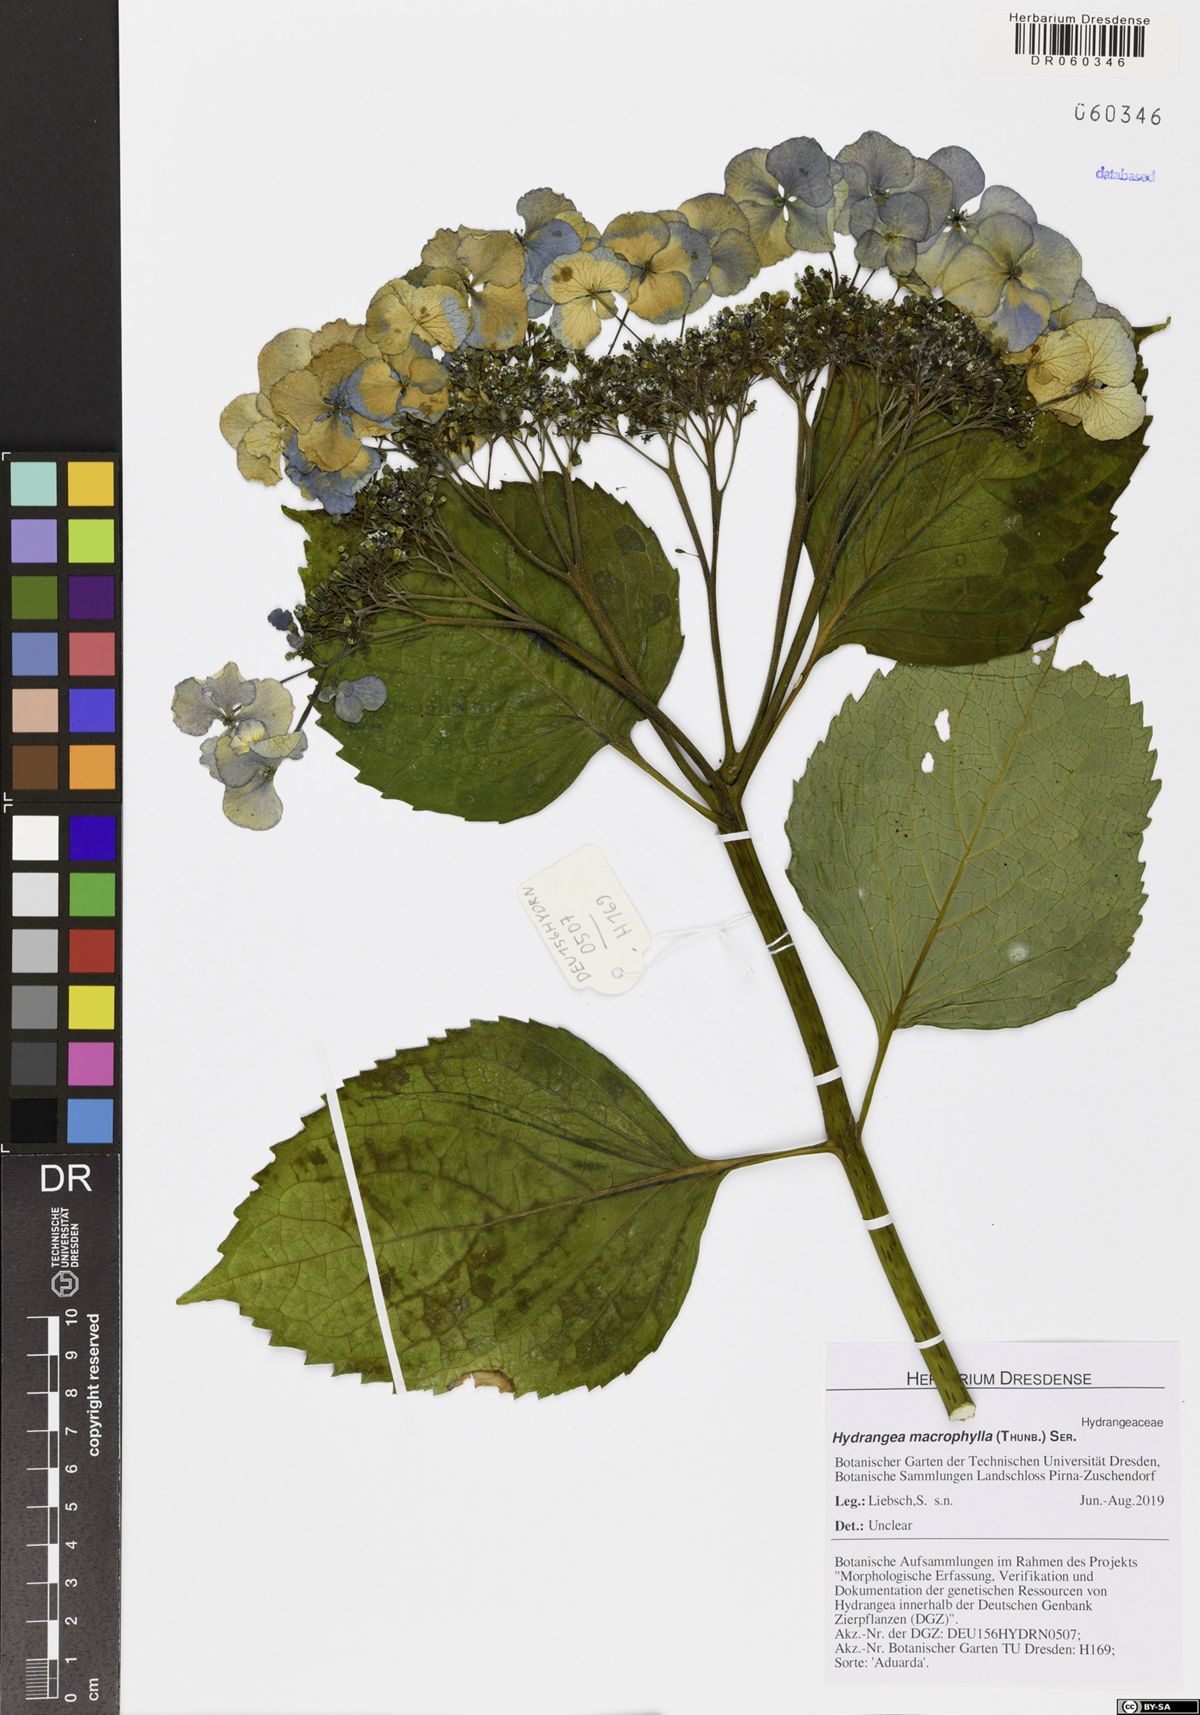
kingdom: Plantae
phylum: Tracheophyta
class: Magnoliopsida
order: Cornales
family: Hydrangeaceae
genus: Hydrangea
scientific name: Hydrangea macrophylla
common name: Hydrangea
